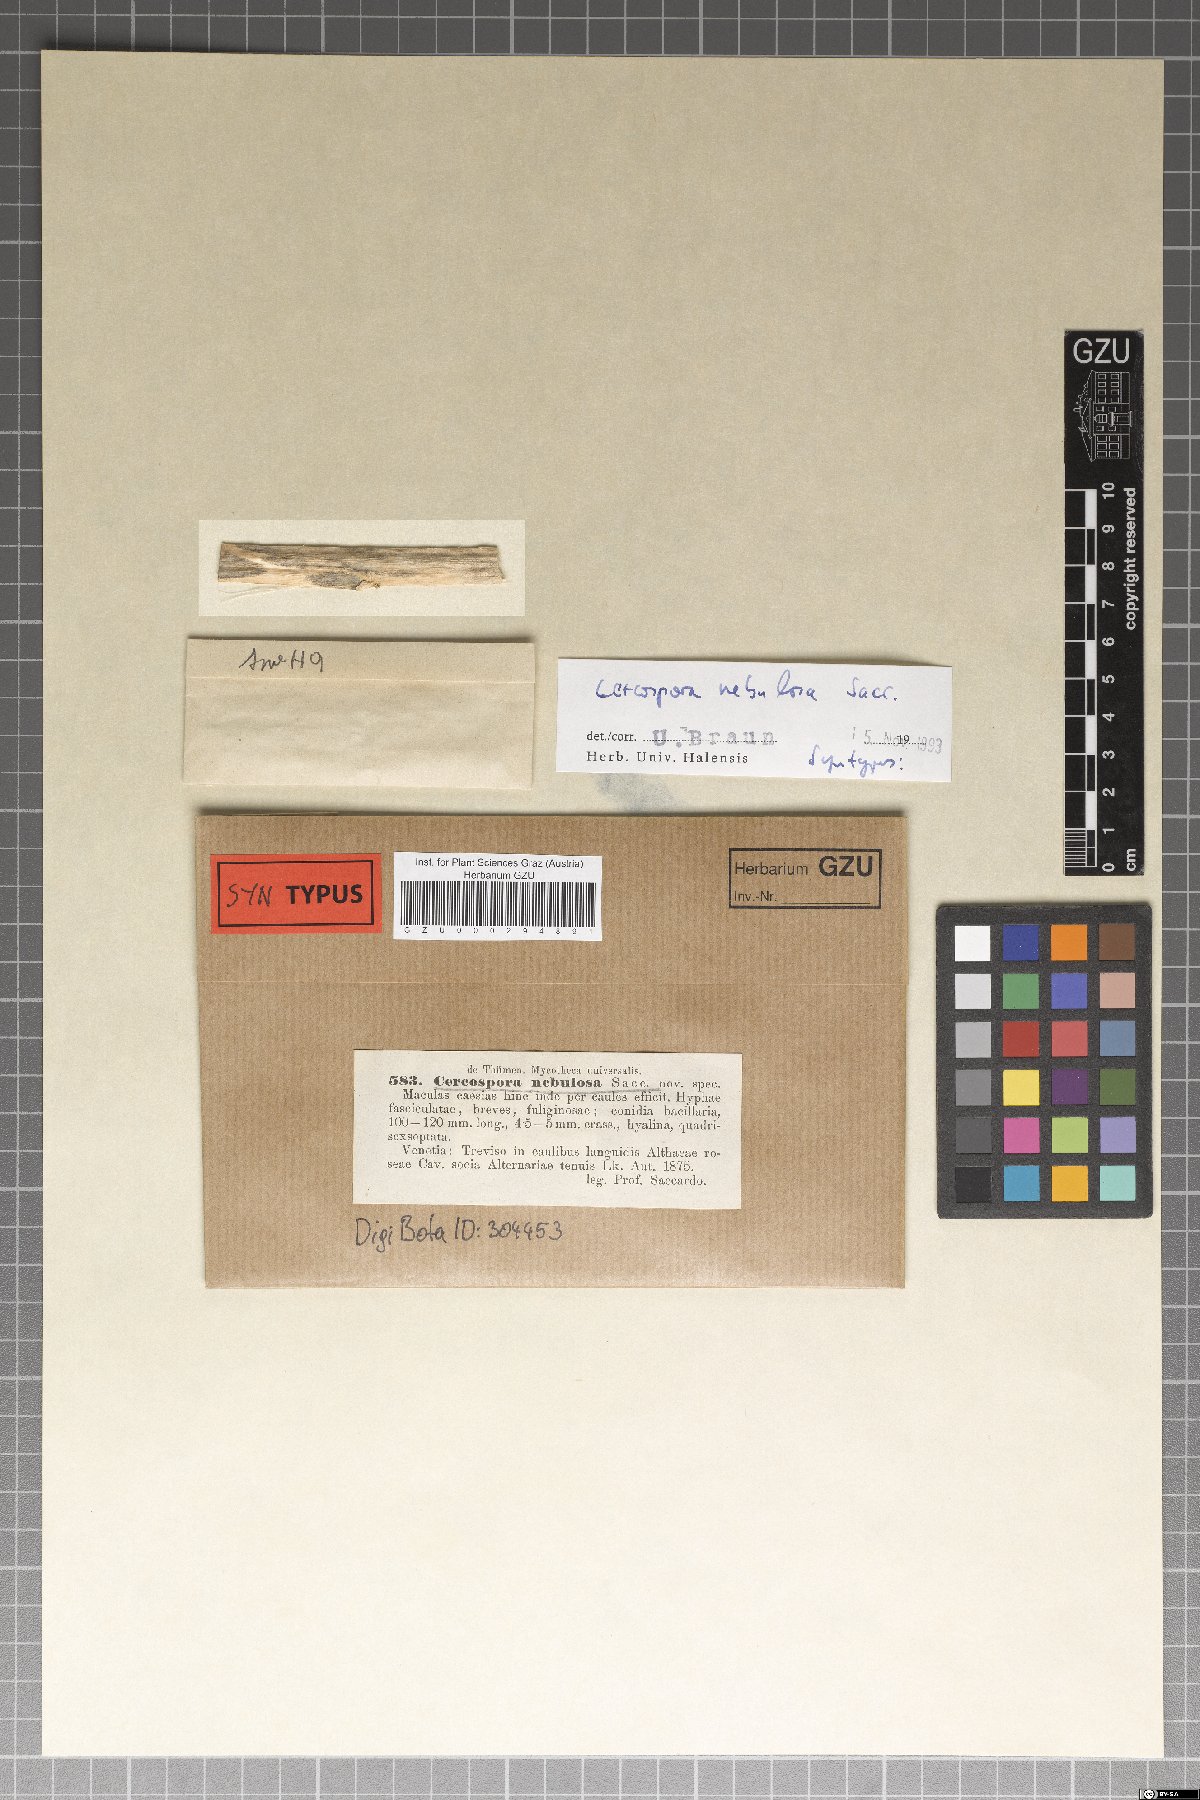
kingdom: Fungi
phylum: Ascomycota
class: Dothideomycetes
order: Mycosphaerellales
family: Mycosphaerellaceae
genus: Cercospora
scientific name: Cercospora
